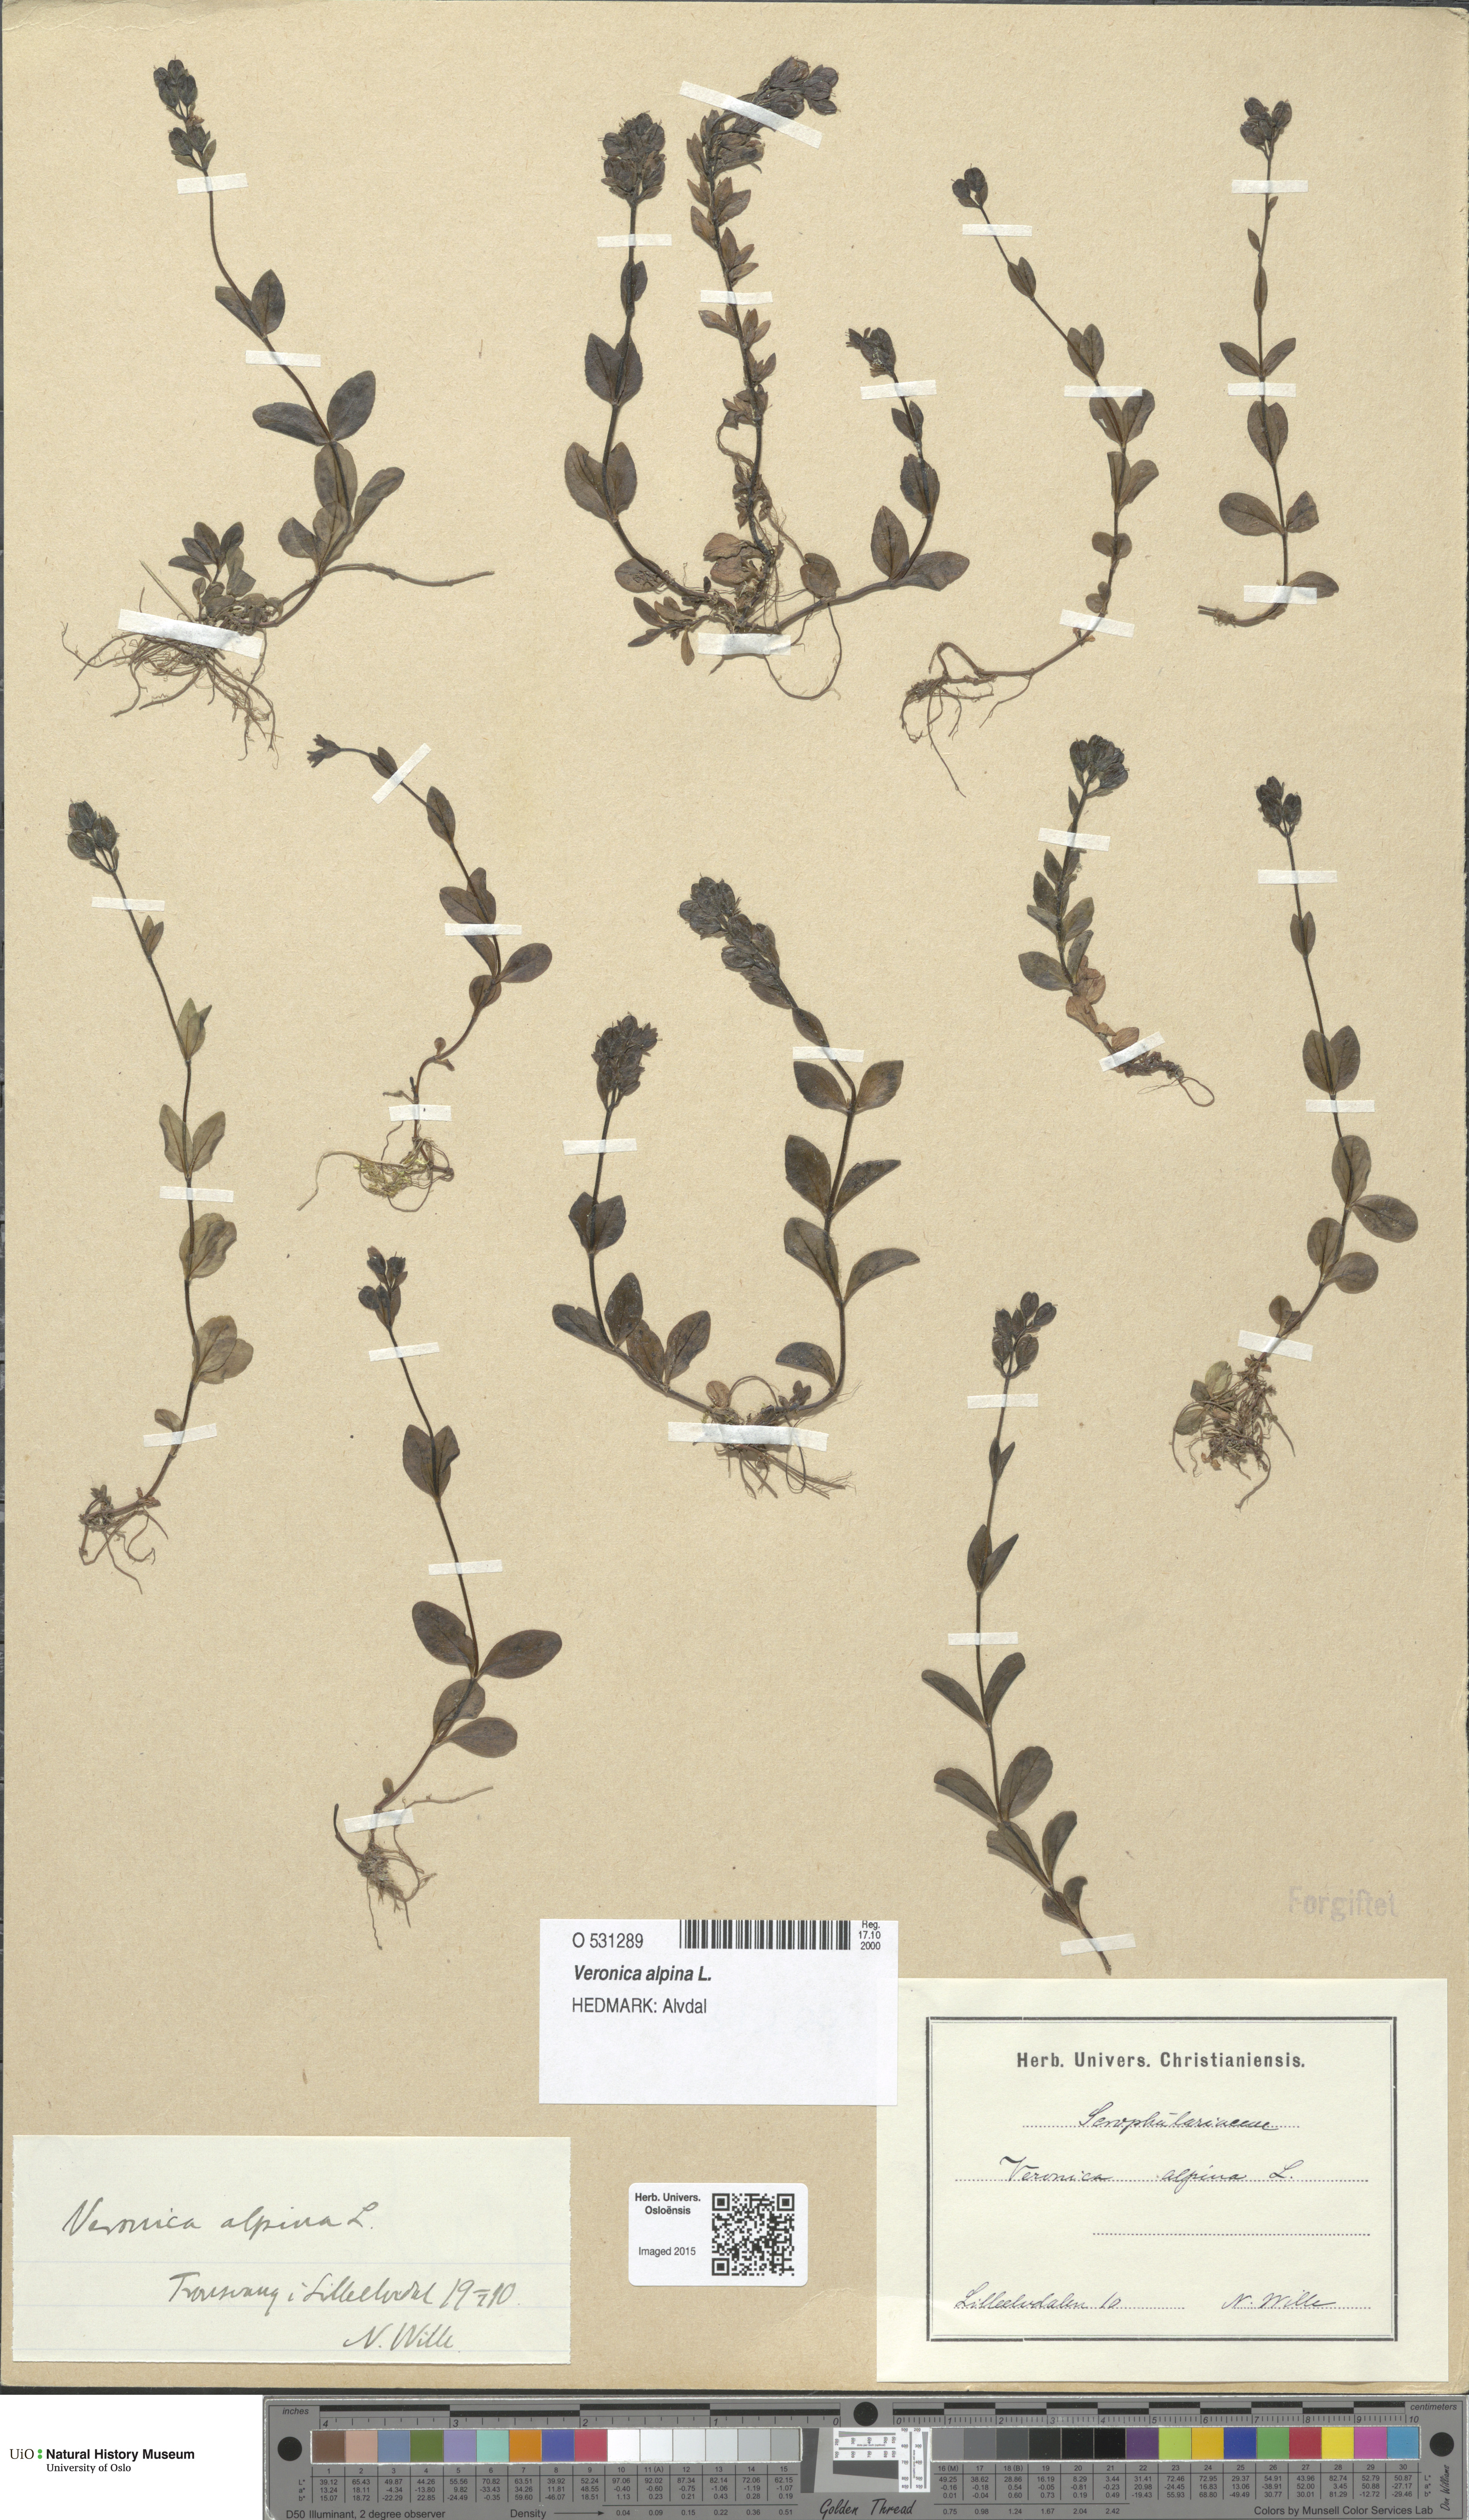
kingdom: Plantae
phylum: Tracheophyta
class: Magnoliopsida
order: Lamiales
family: Plantaginaceae
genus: Veronica
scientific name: Veronica alpina
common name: Alpine speedwell
